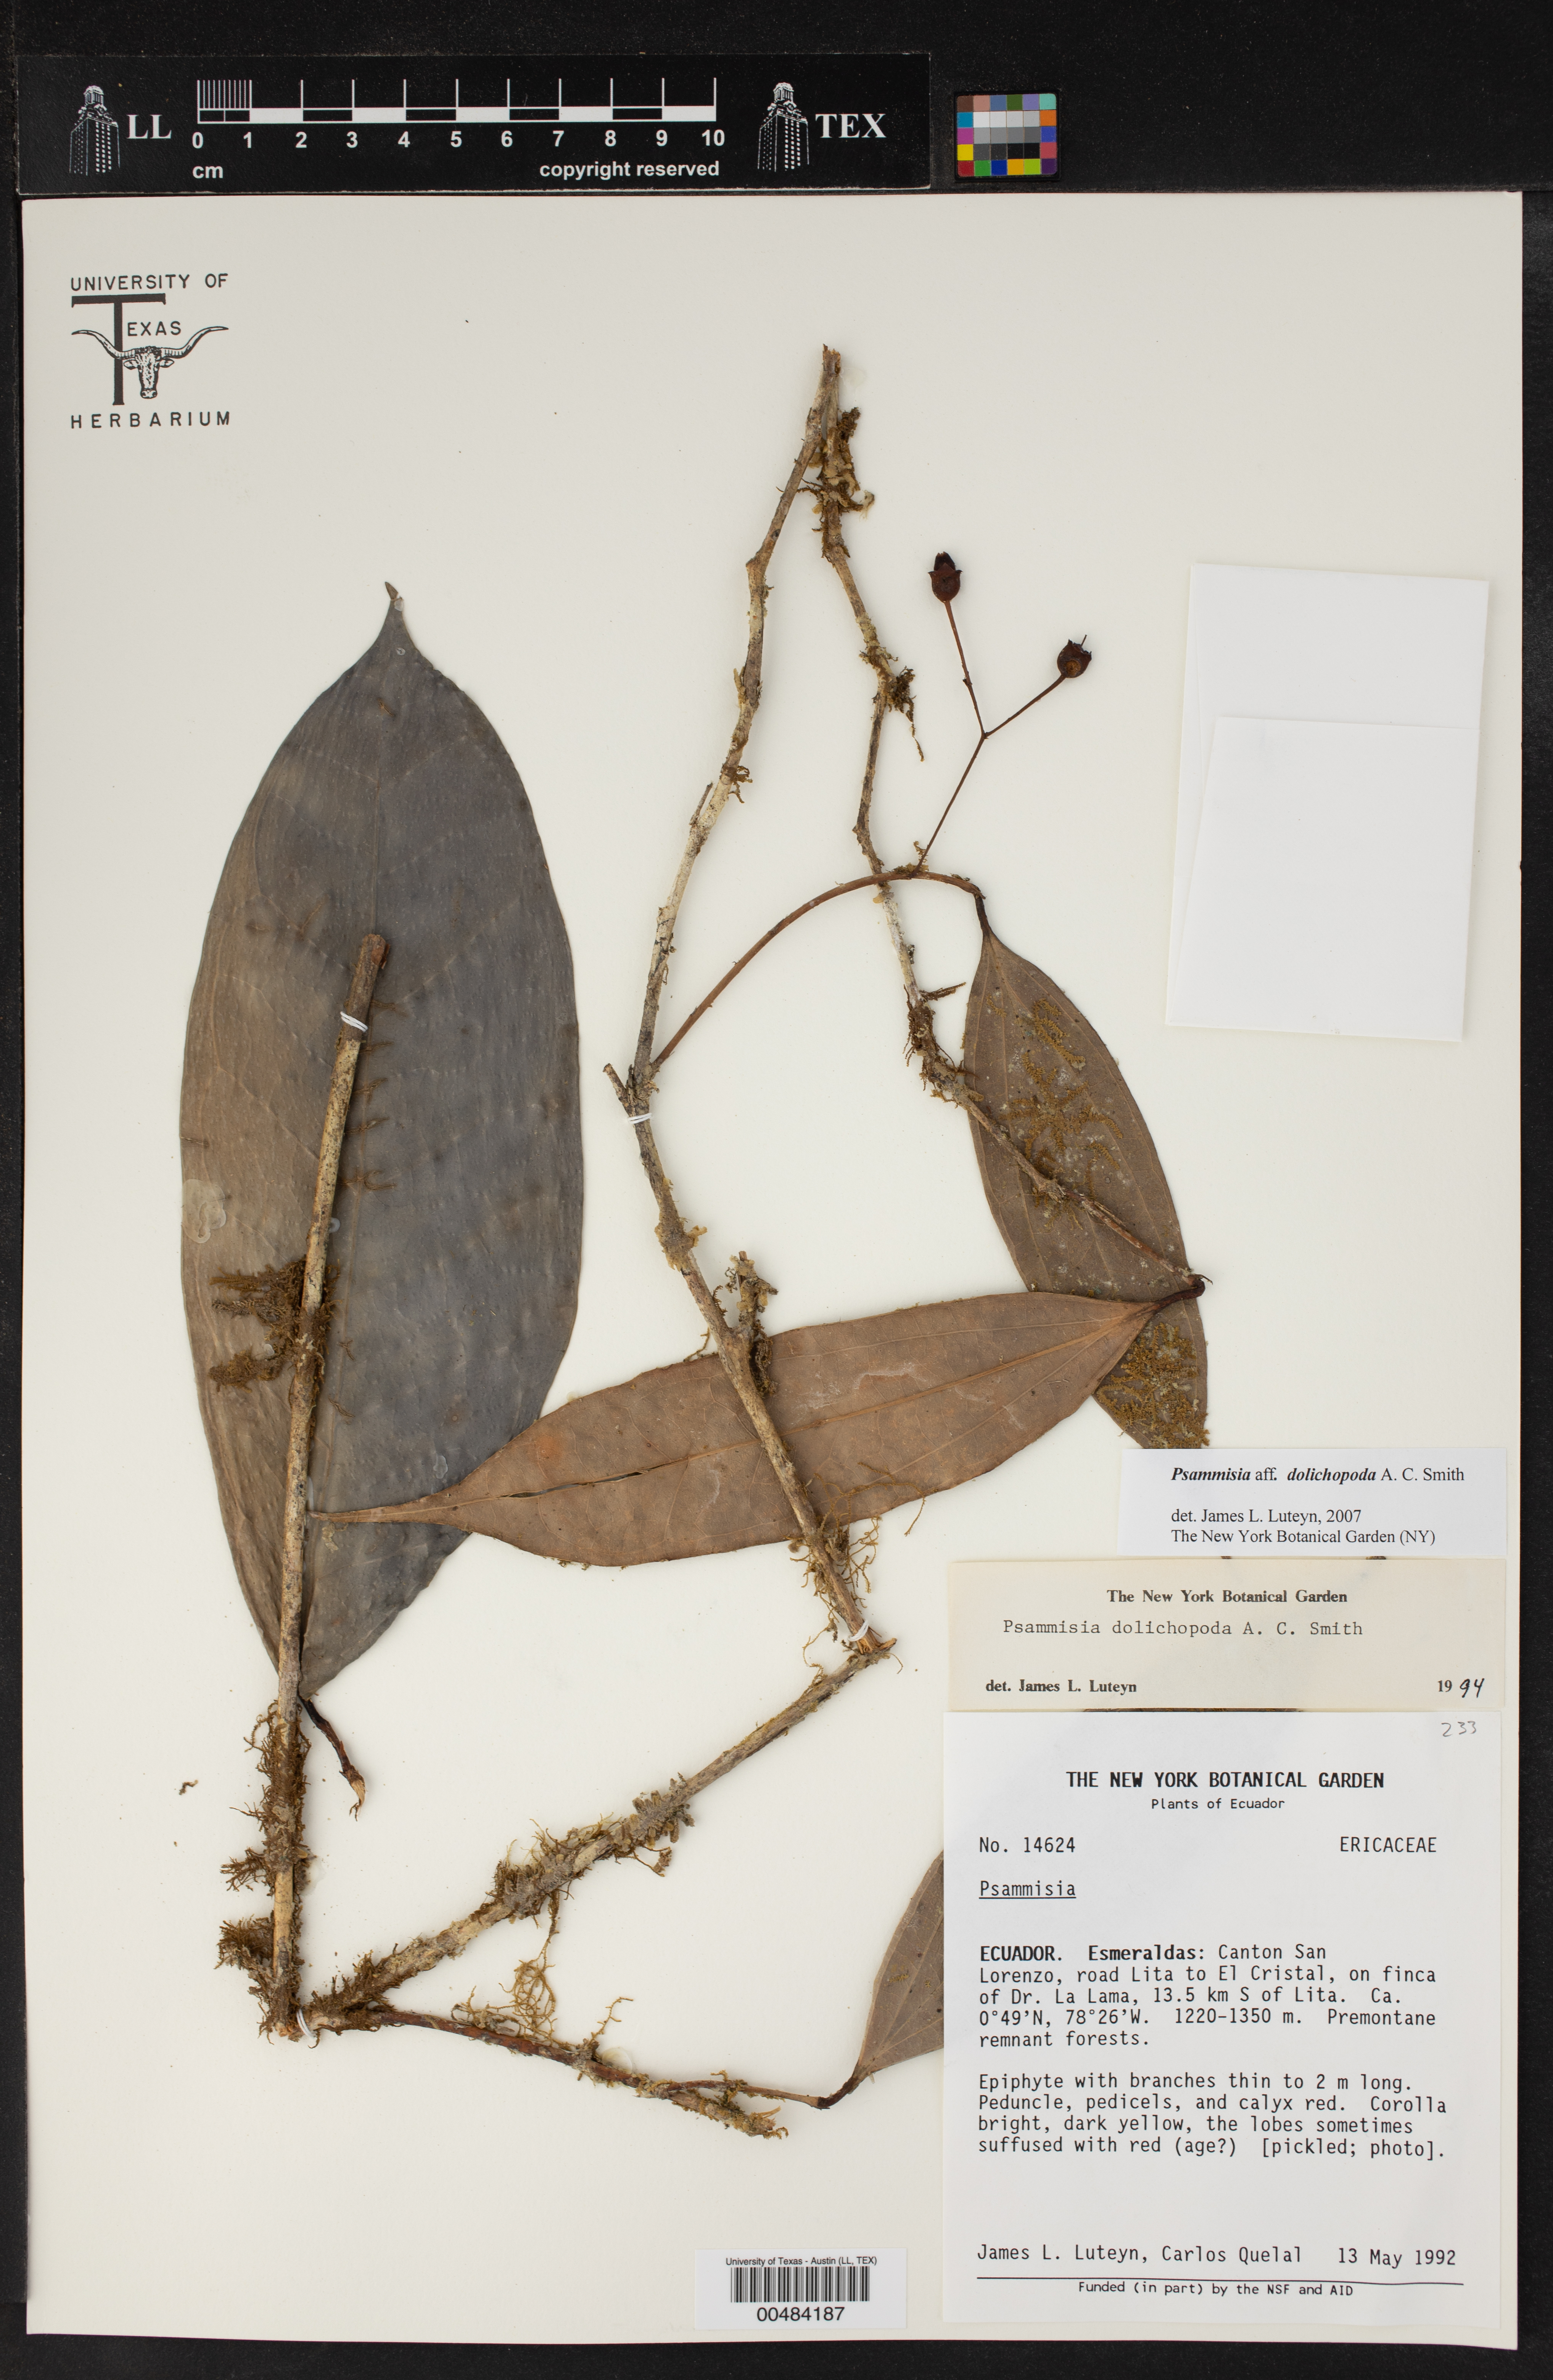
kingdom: Plantae
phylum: Tracheophyta
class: Magnoliopsida
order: Ericales
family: Ericaceae
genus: Psammisia
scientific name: Psammisia dolichopoda
